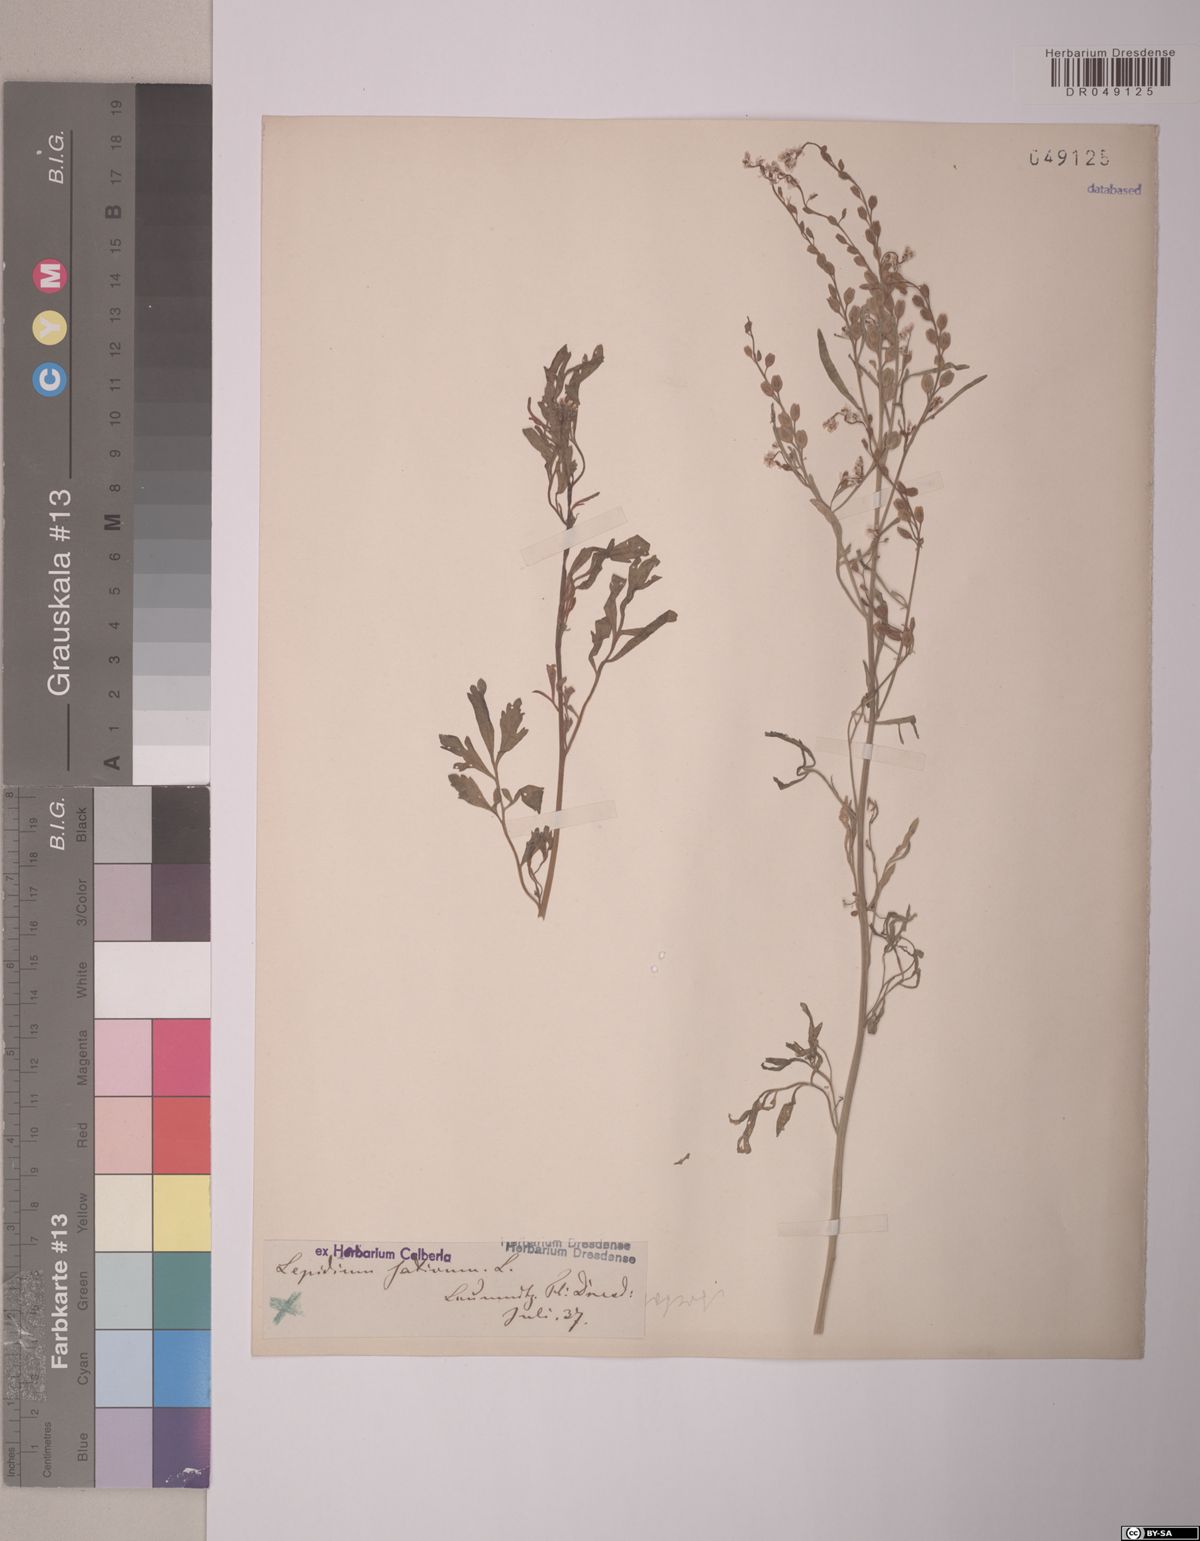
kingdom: Plantae
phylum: Tracheophyta
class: Magnoliopsida
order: Brassicales
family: Brassicaceae
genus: Lepidium
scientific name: Lepidium sativum
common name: Garden cress
